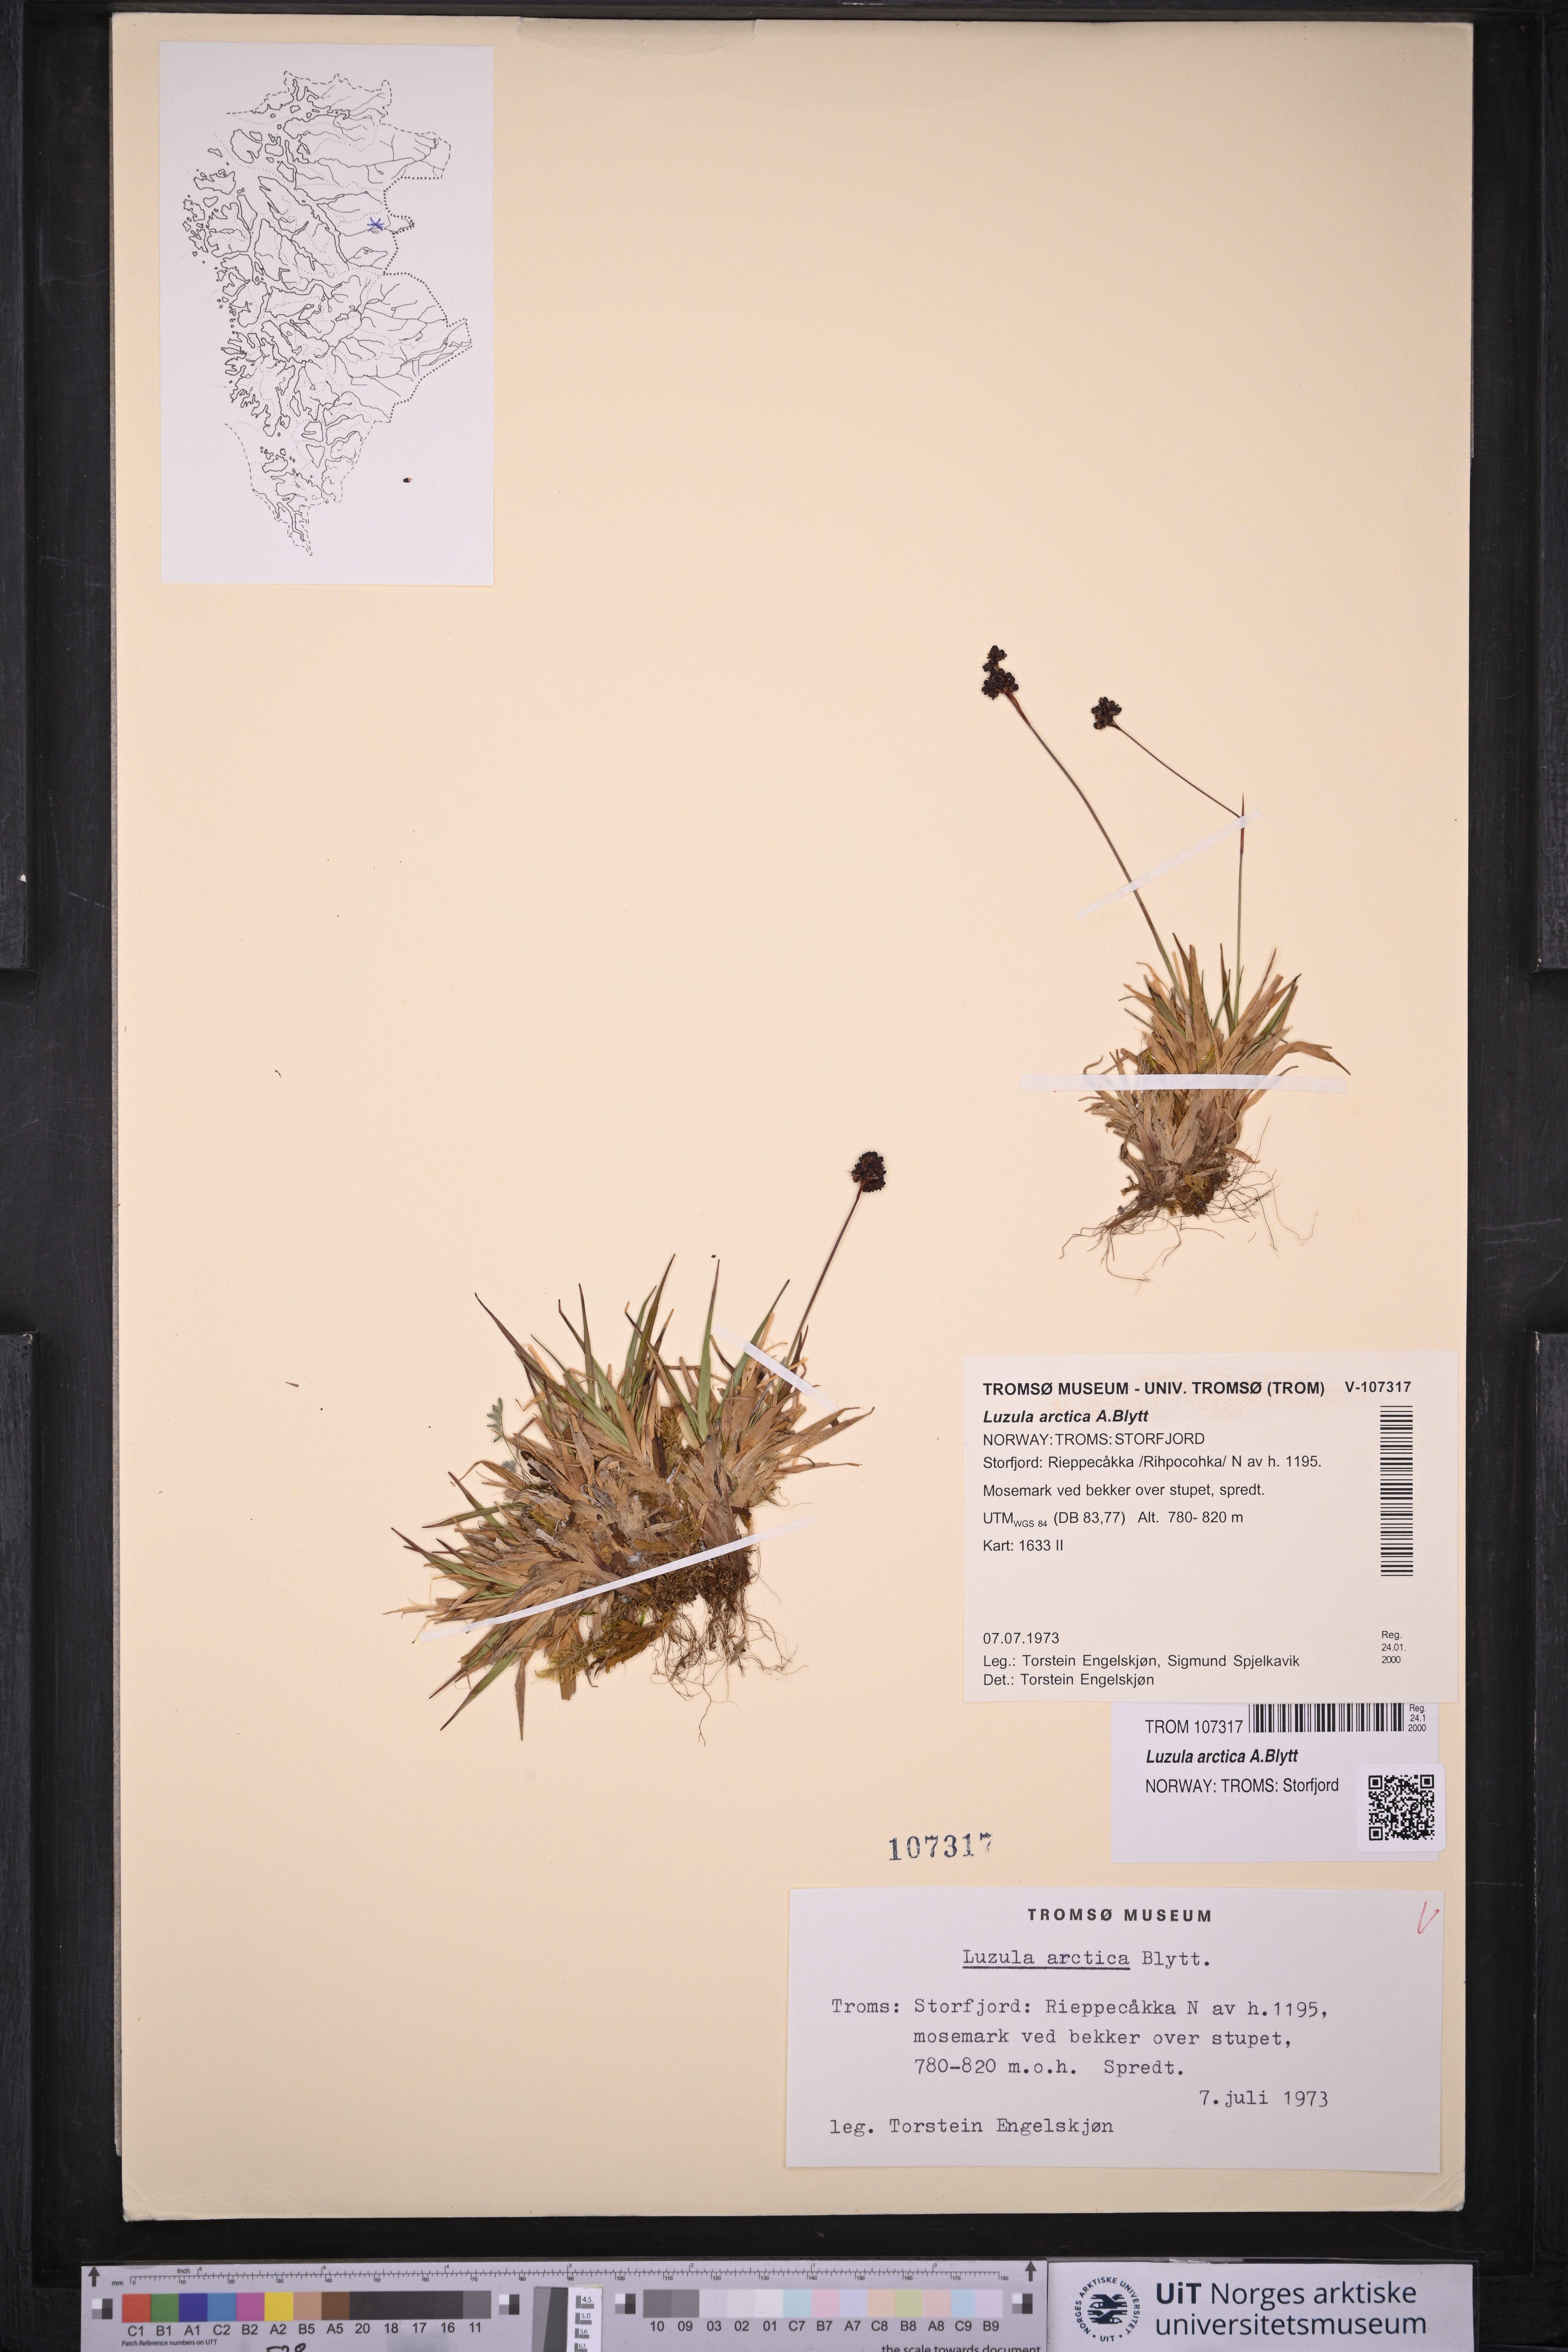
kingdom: Plantae
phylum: Tracheophyta
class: Liliopsida
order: Poales
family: Juncaceae
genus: Luzula
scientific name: Luzula nivalis
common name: Arctic woodrush
